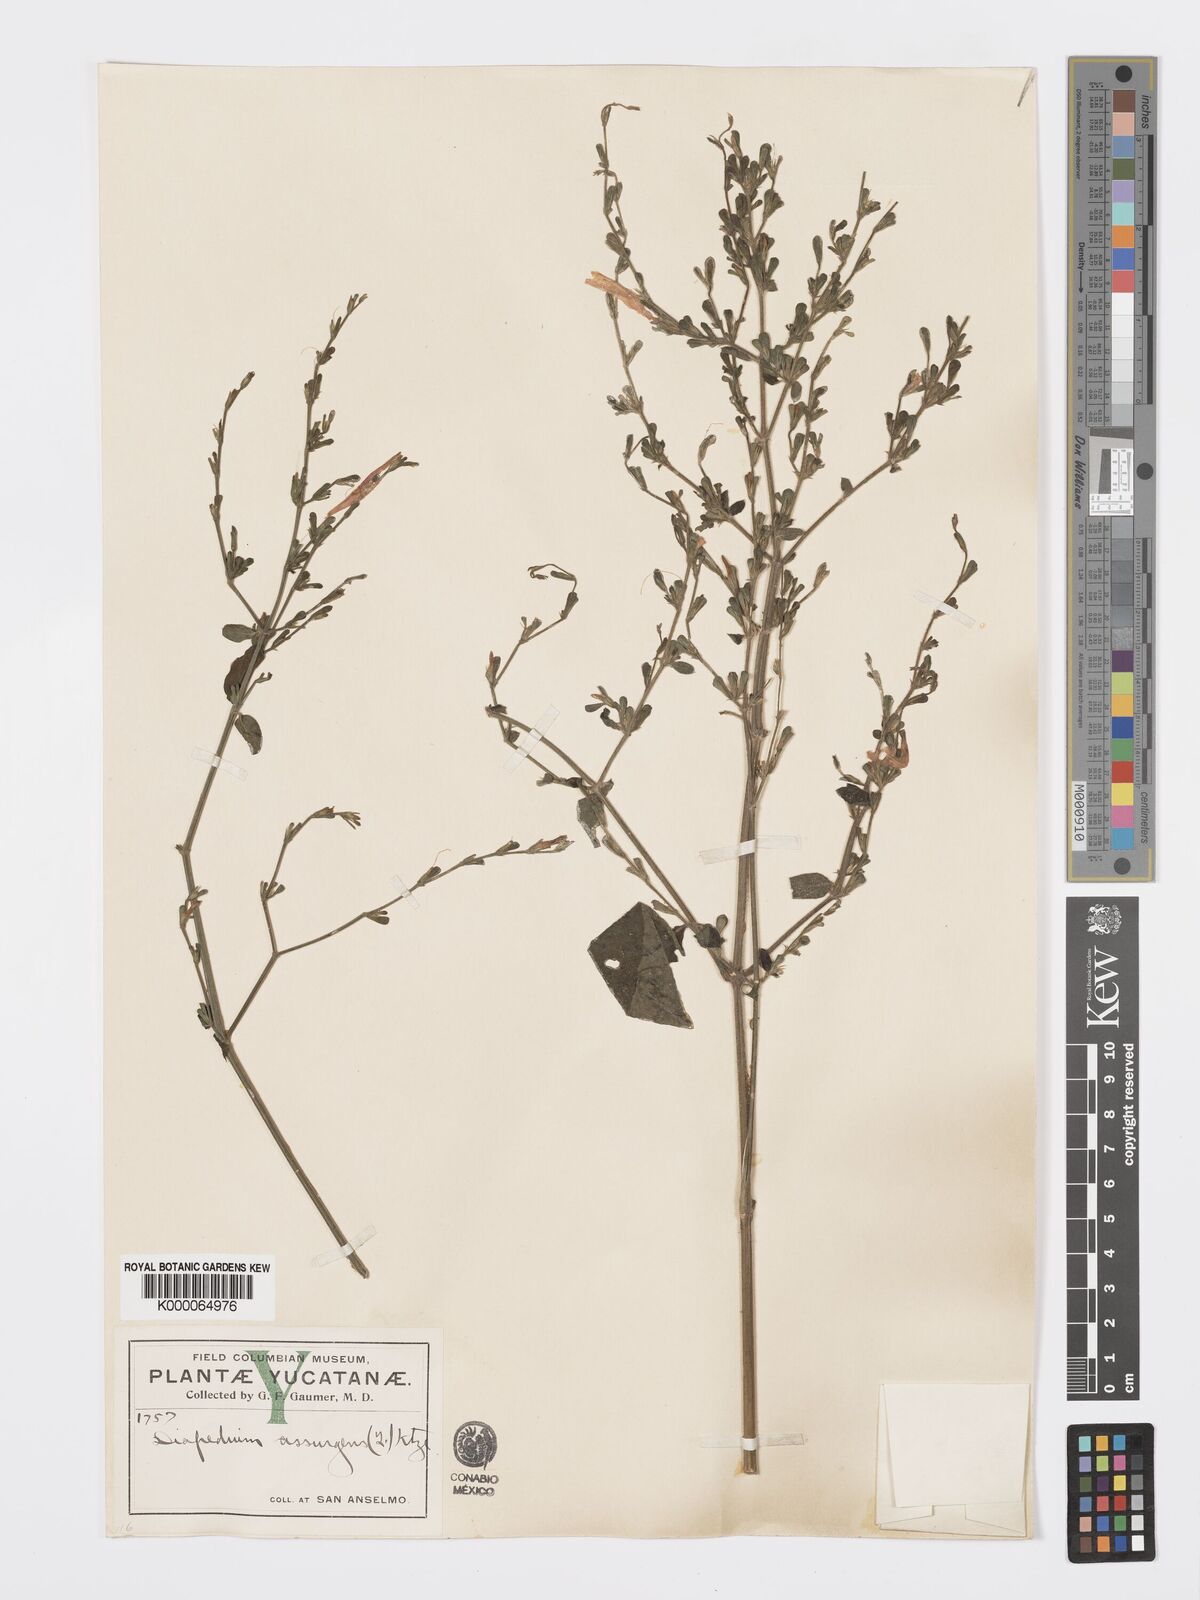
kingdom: Plantae
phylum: Tracheophyta
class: Magnoliopsida
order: Lamiales
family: Acanthaceae
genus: Dicliptera
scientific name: Dicliptera sexangularis
